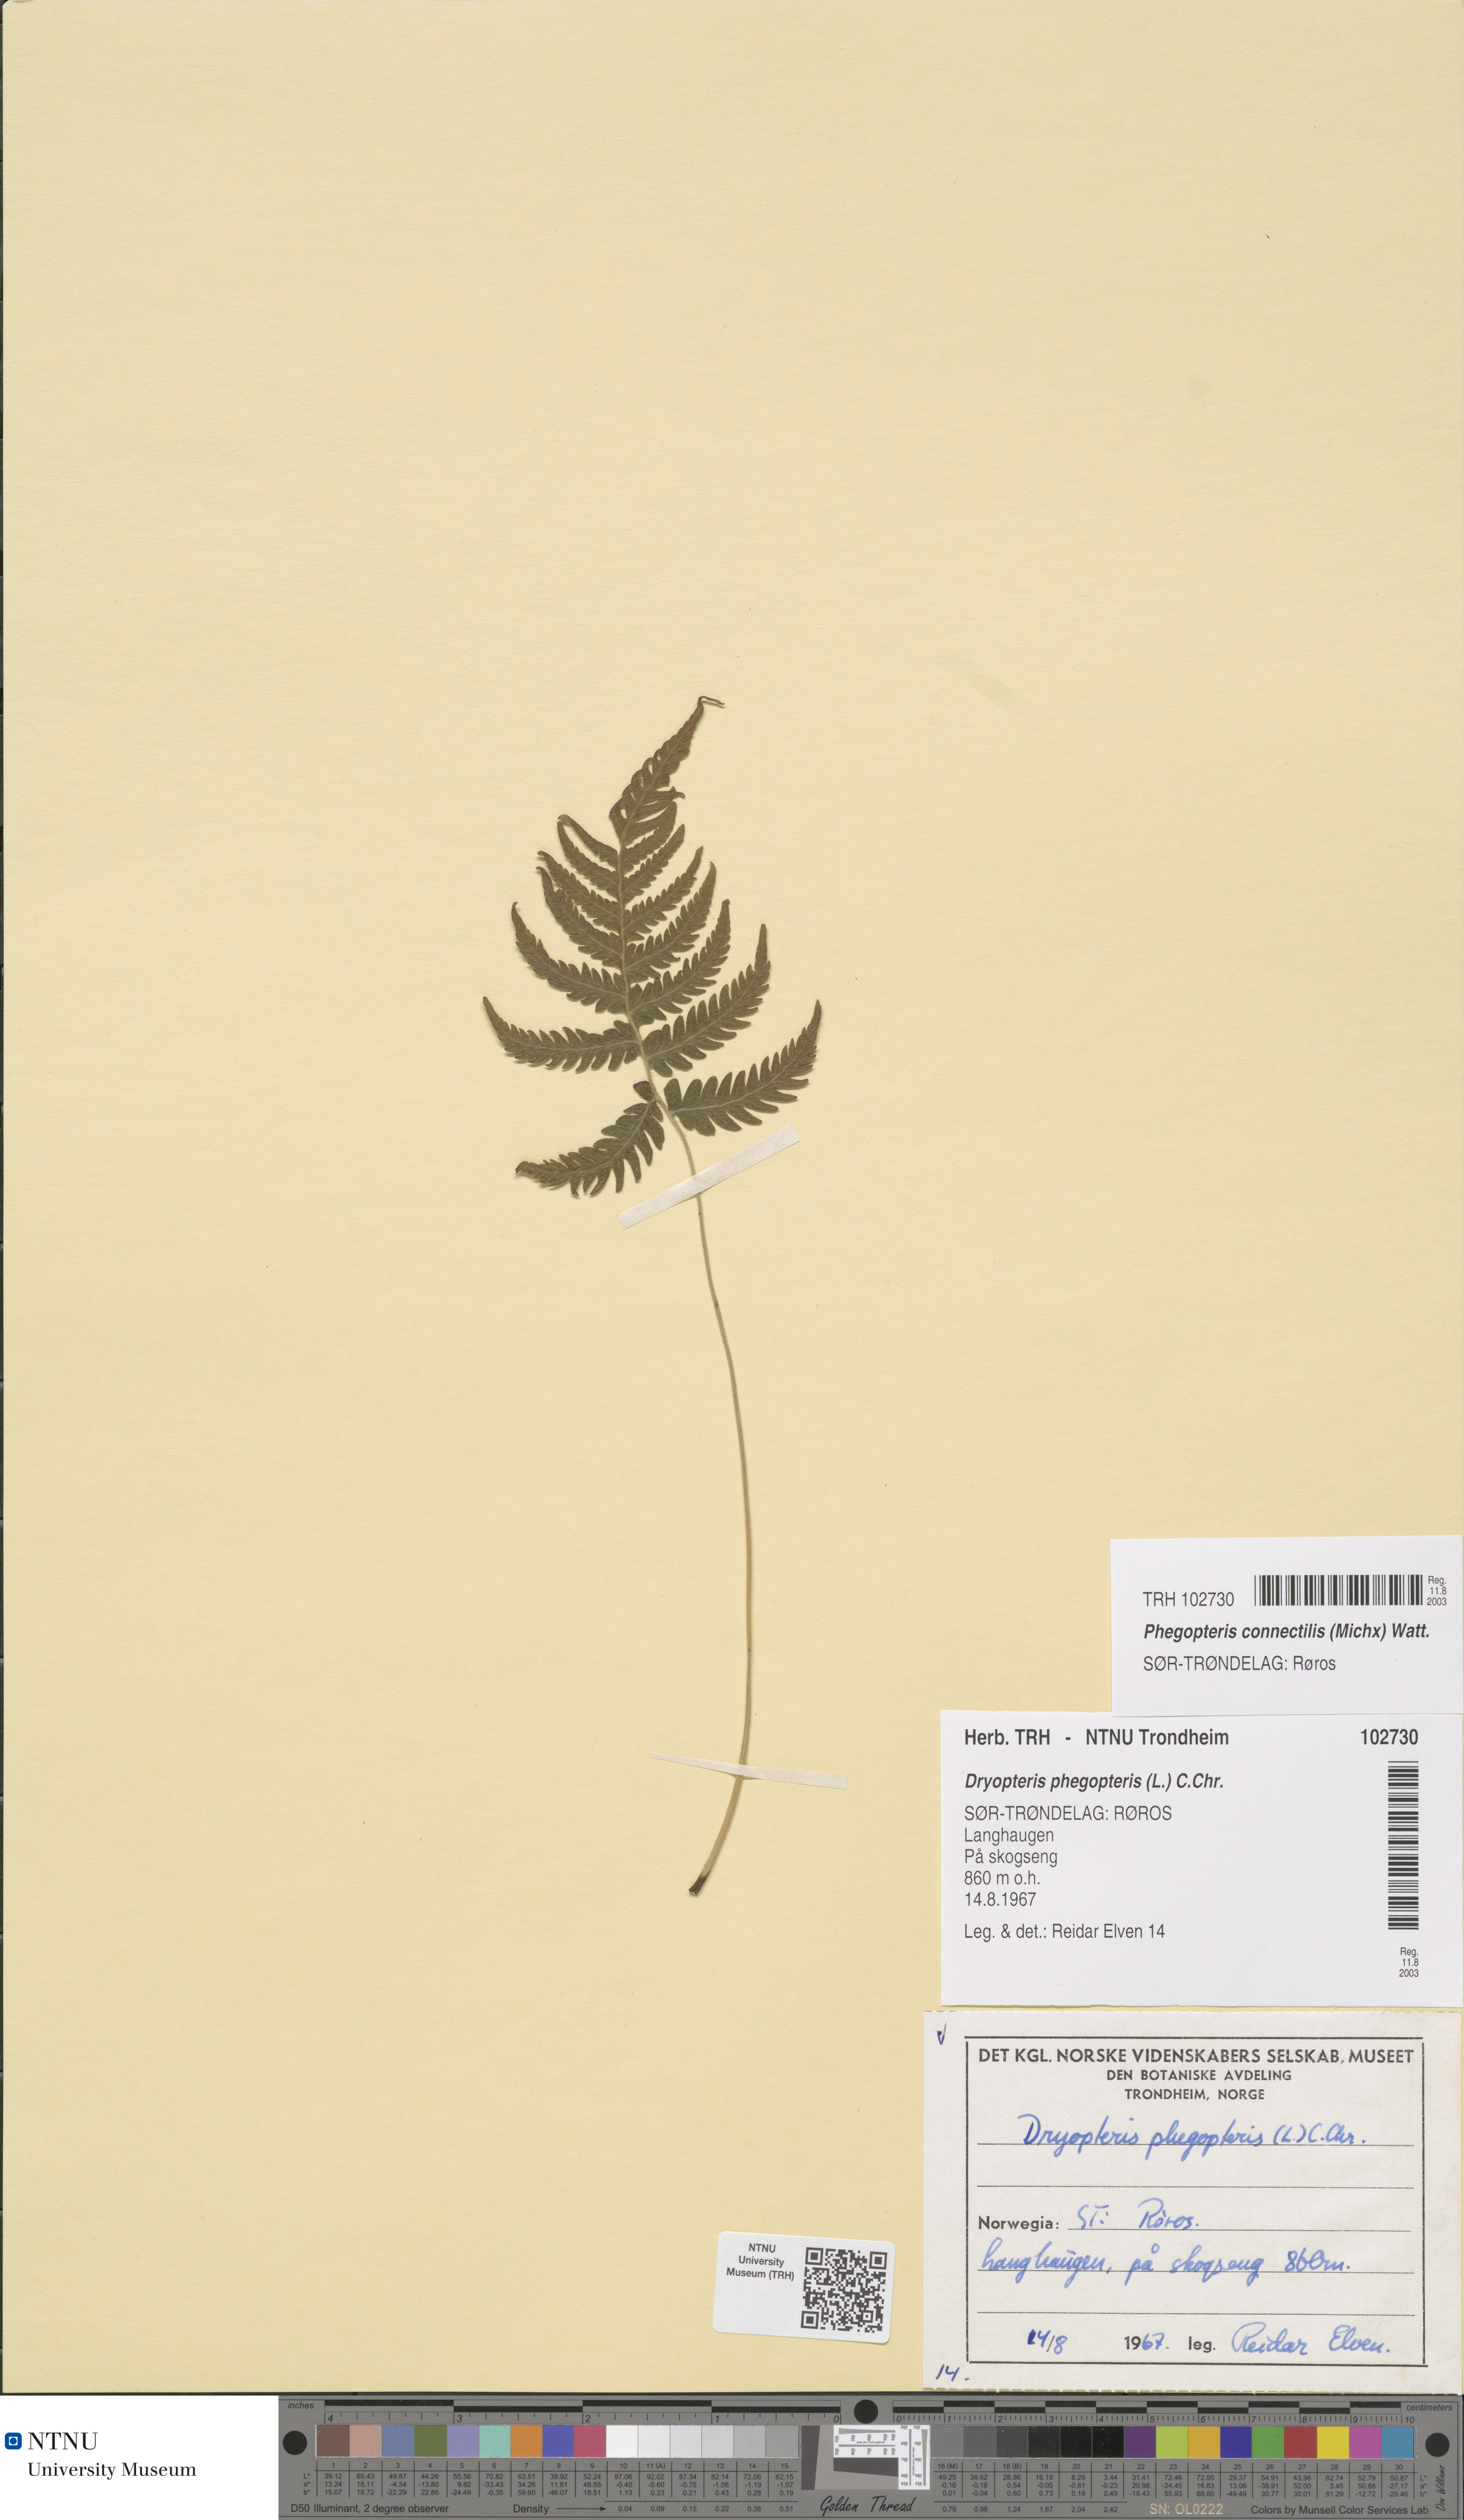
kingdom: Plantae
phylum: Tracheophyta
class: Polypodiopsida
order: Polypodiales
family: Thelypteridaceae
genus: Phegopteris
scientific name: Phegopteris connectilis
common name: Beech fern
